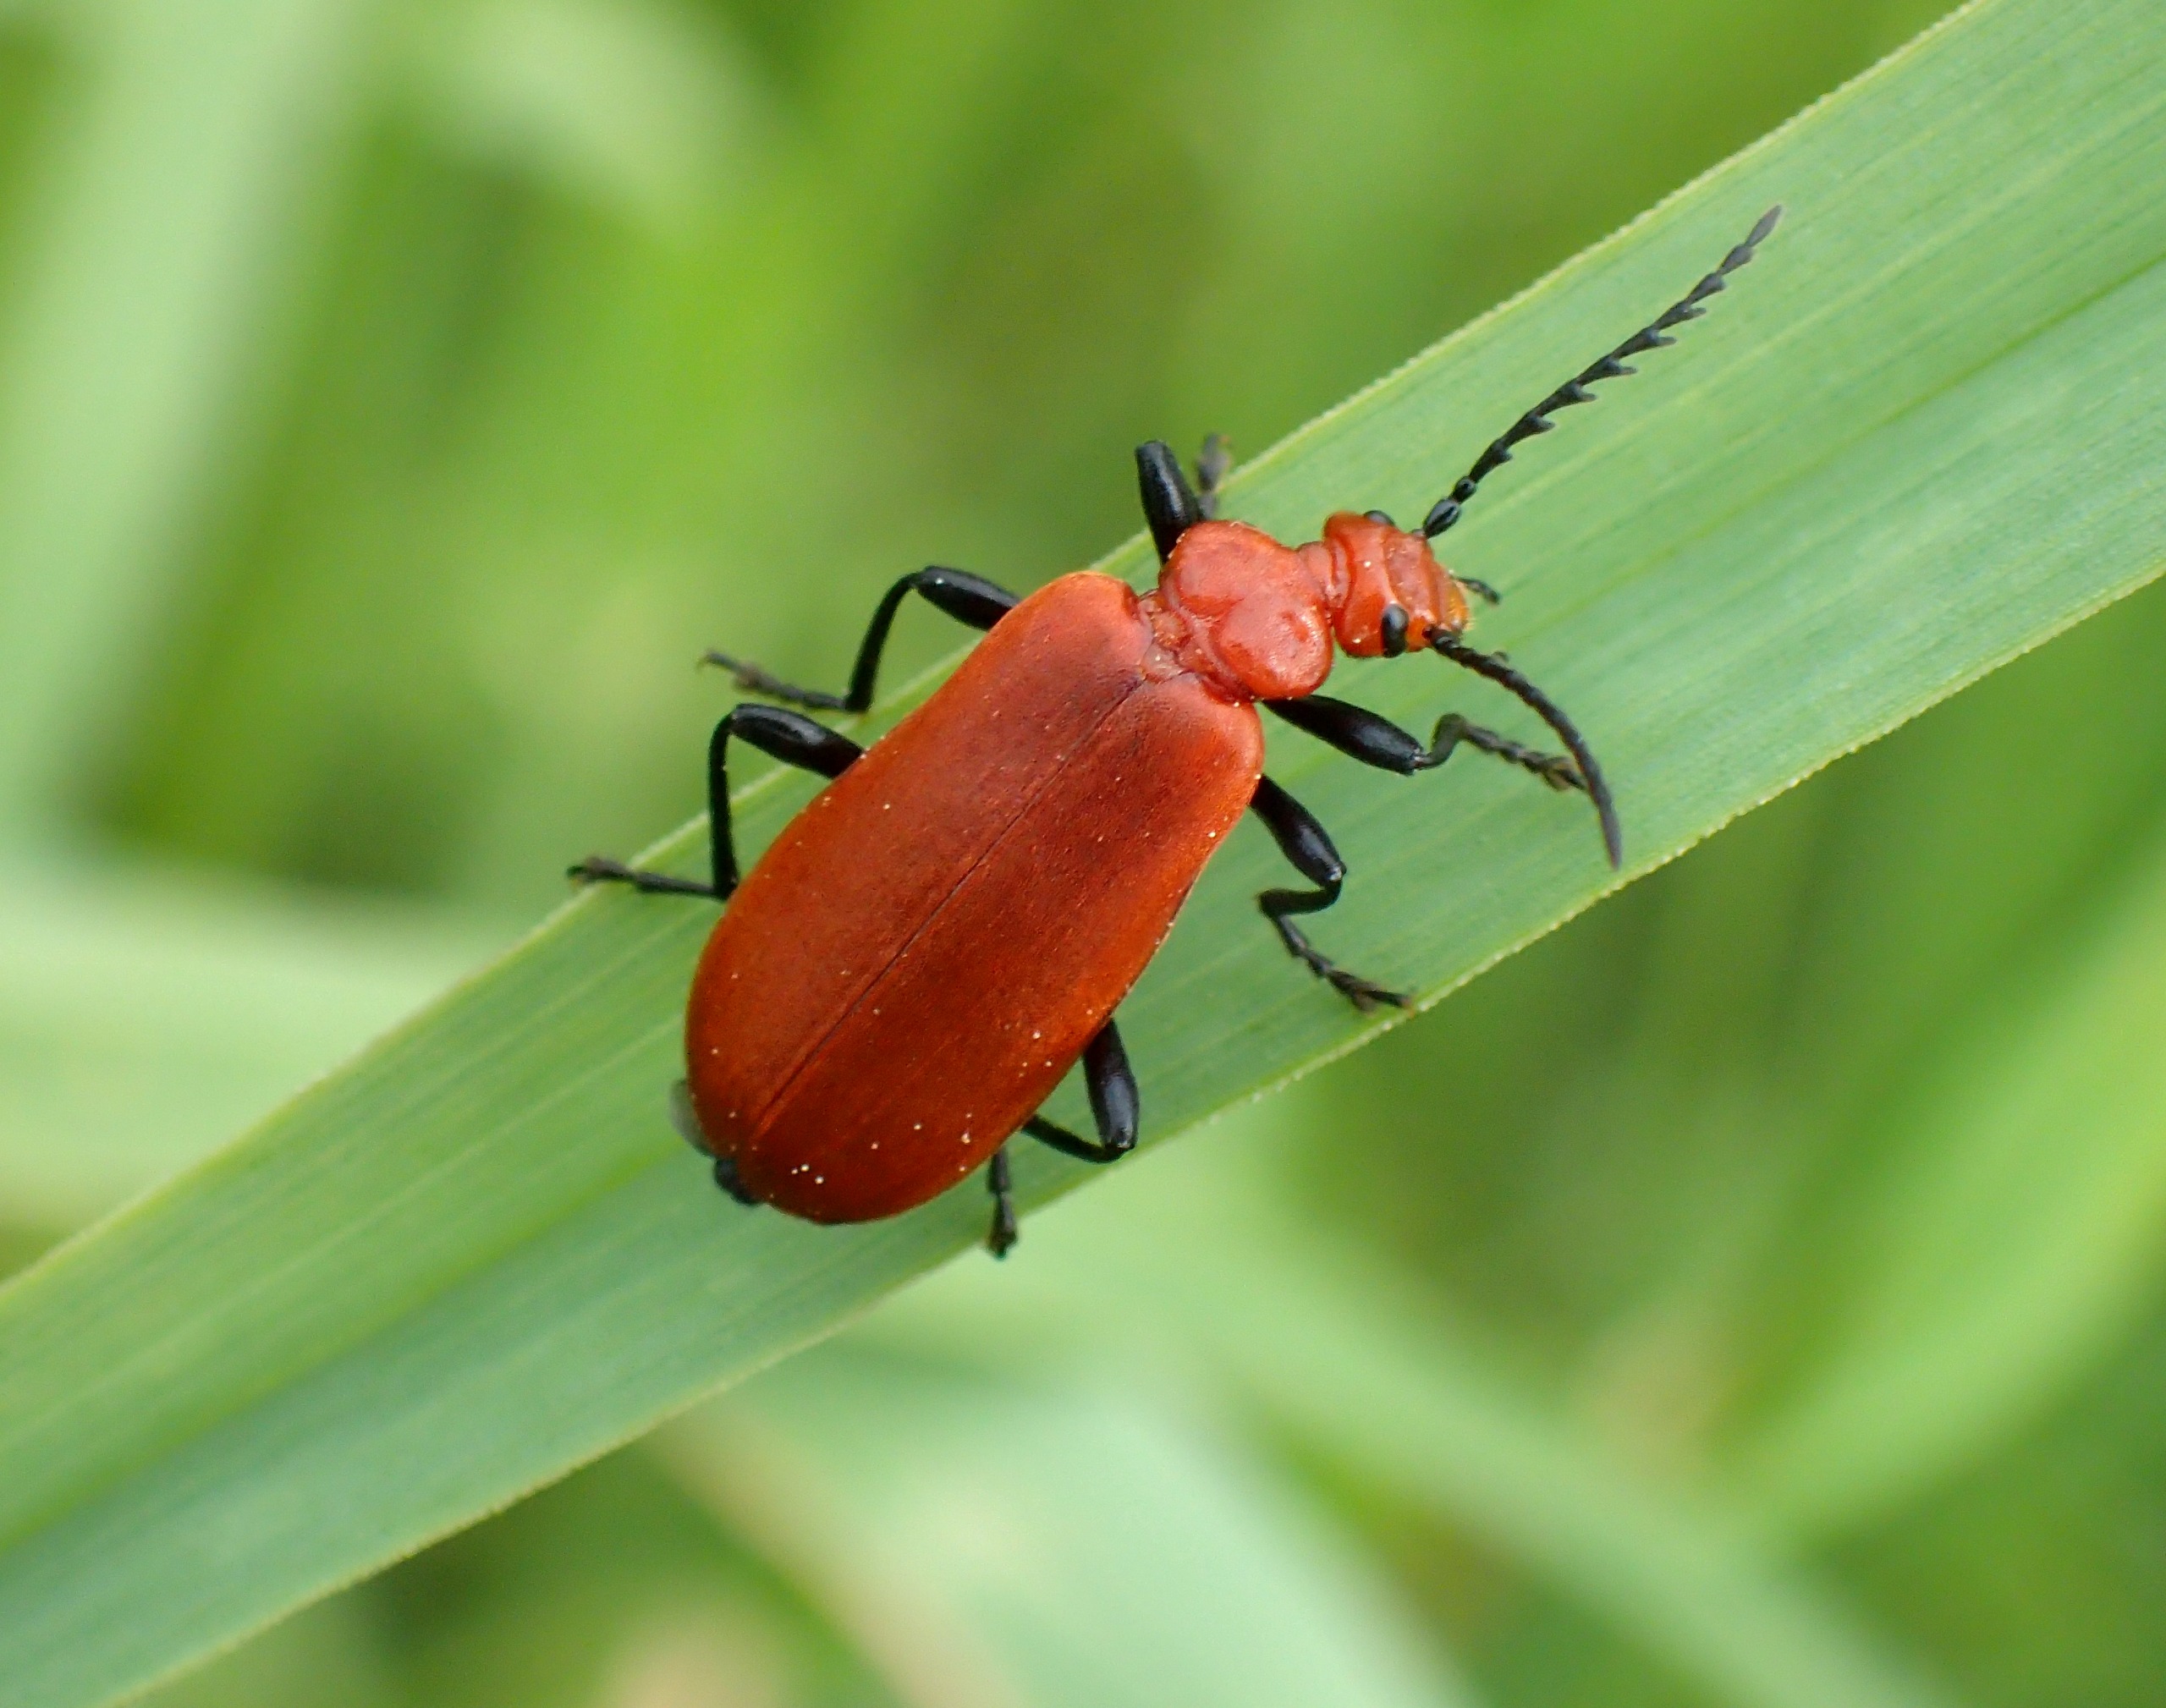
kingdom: Animalia
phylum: Arthropoda
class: Insecta
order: Coleoptera
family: Pyrochroidae
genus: Pyrochroa
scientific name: Pyrochroa serraticornis
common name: Rødhovedet kardinalbille
